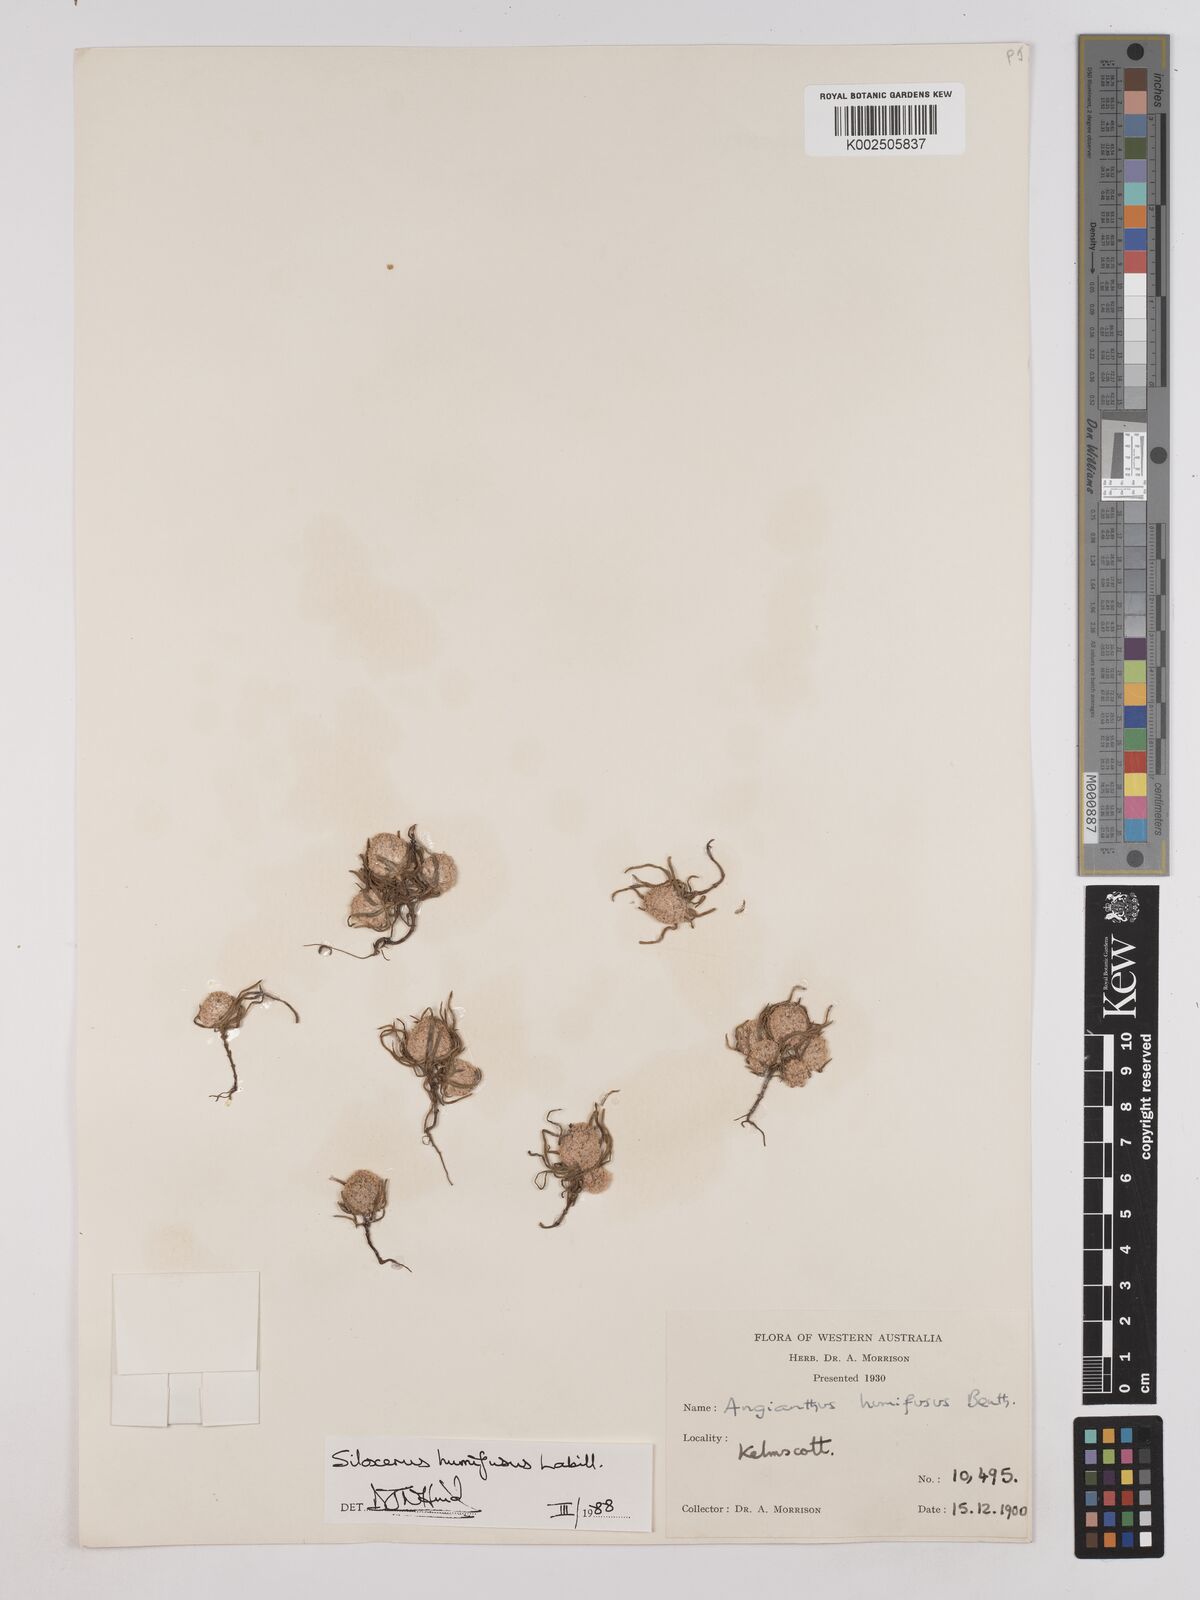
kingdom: Plantae
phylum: Tracheophyta
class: Magnoliopsida
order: Asterales
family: Asteraceae
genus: Siloxerus
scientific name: Siloxerus humifusus
